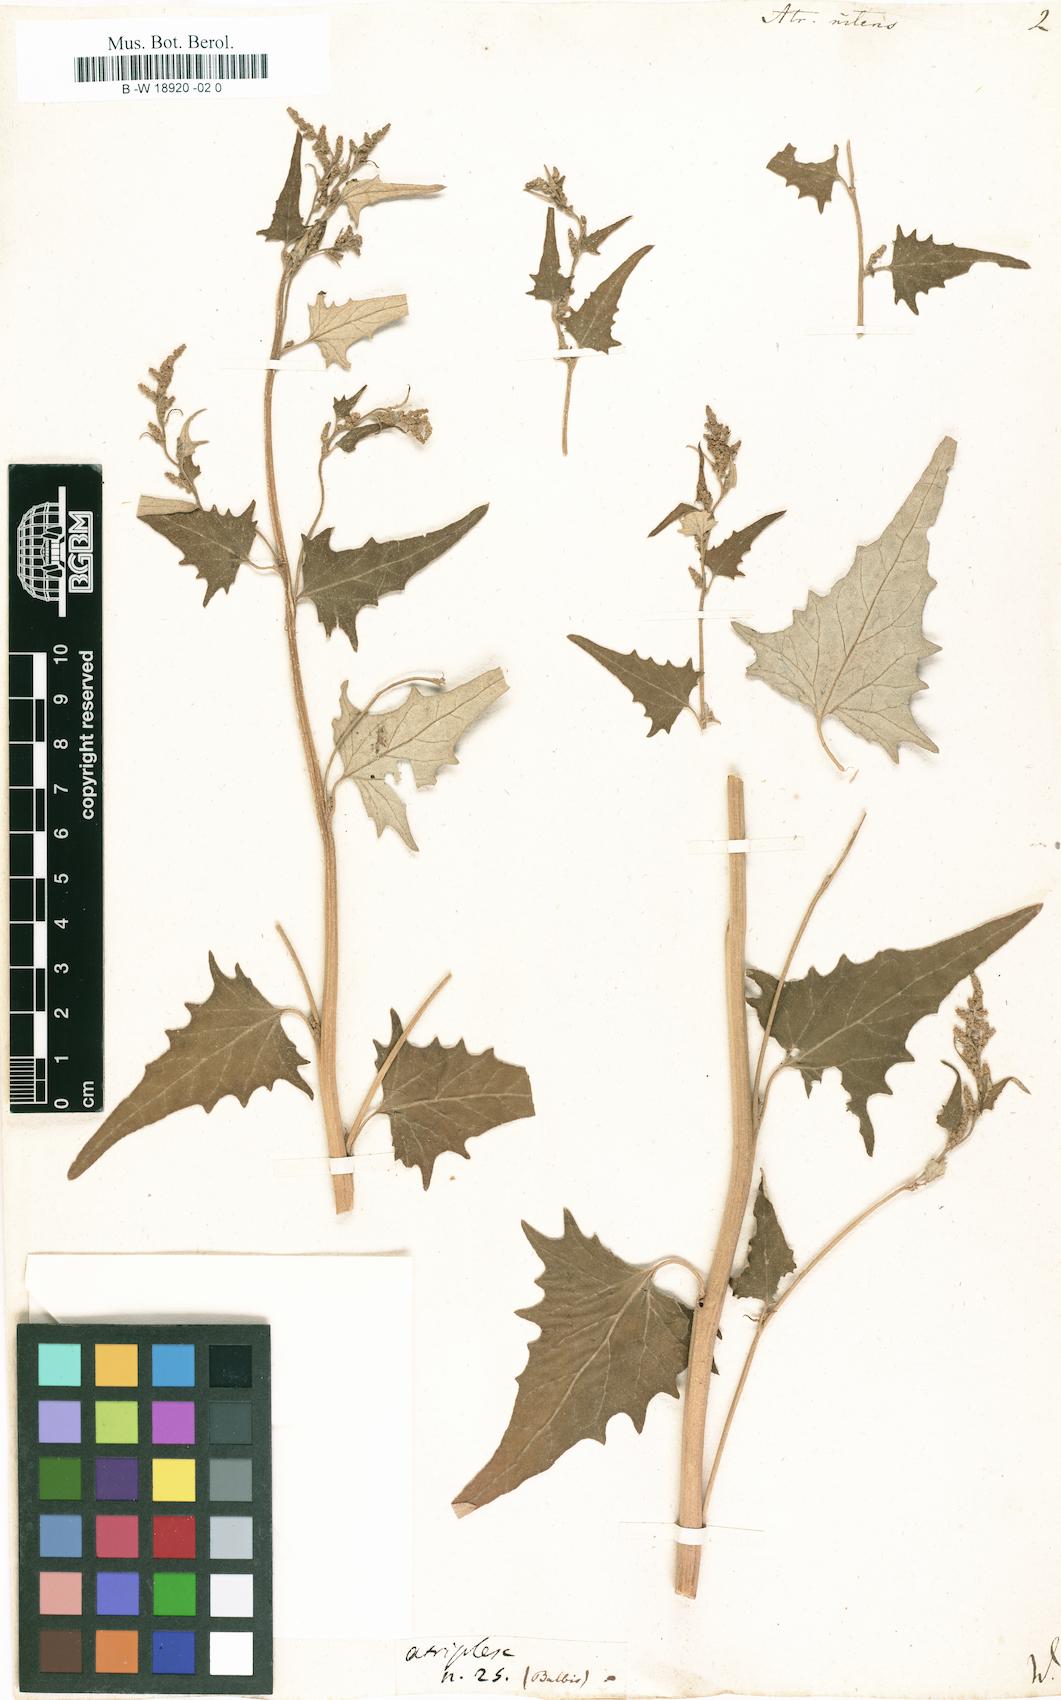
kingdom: Plantae
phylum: Tracheophyta
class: Magnoliopsida
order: Caryophyllales
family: Amaranthaceae
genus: Atriplex
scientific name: Atriplex sagittata
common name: Purple orache
